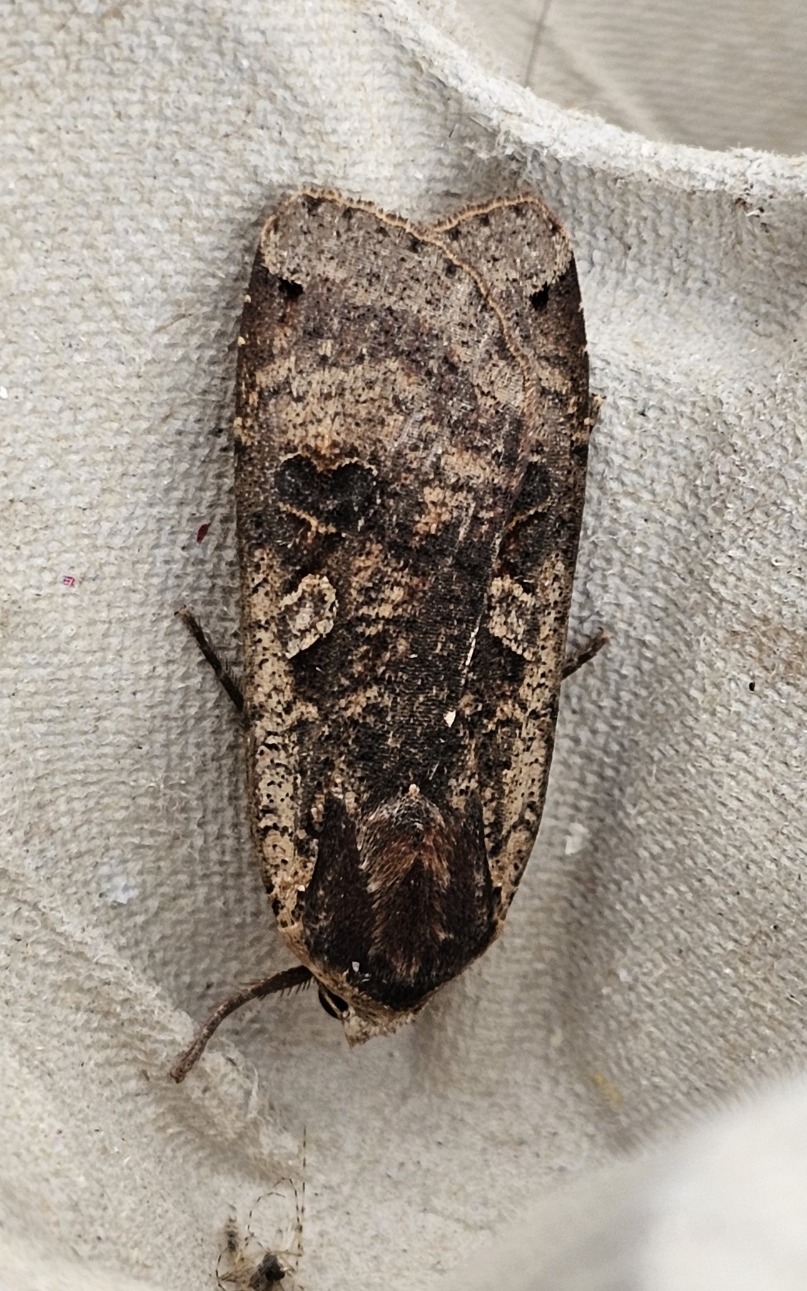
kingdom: Animalia
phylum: Arthropoda
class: Insecta
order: Lepidoptera
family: Noctuidae
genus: Noctua
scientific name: Noctua pronuba
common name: Stor smutugle
